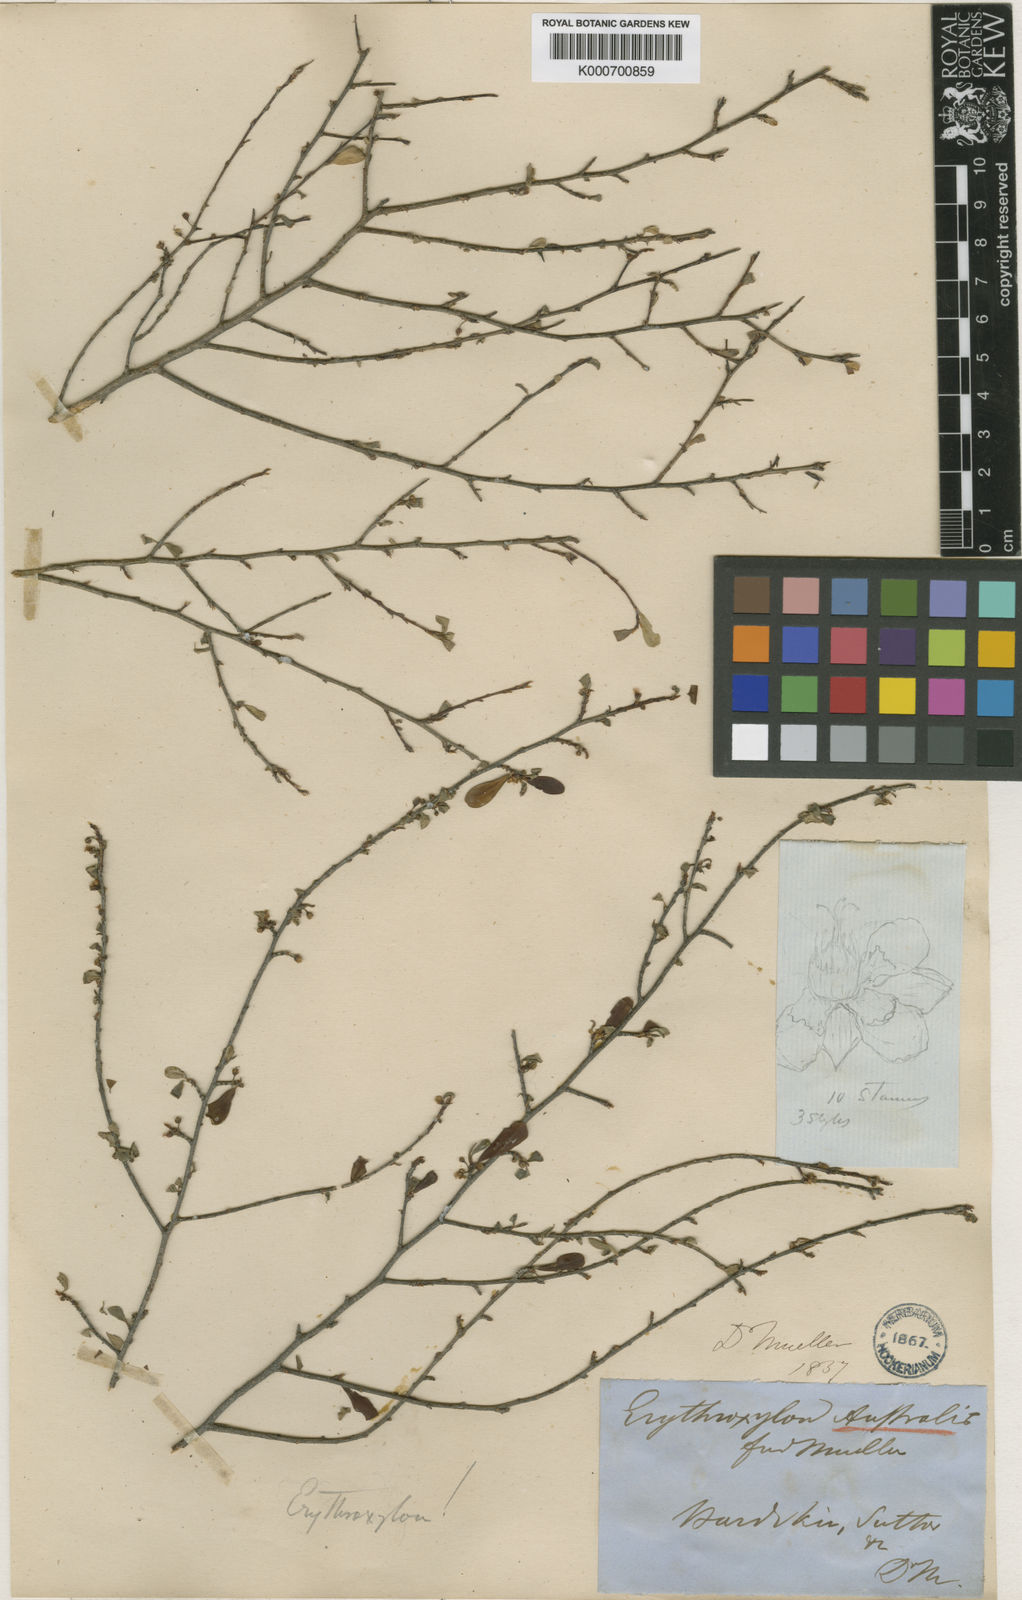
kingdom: Plantae
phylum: Tracheophyta
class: Magnoliopsida
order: Malpighiales
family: Erythroxylaceae
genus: Erythroxylum
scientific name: Erythroxylum australe
